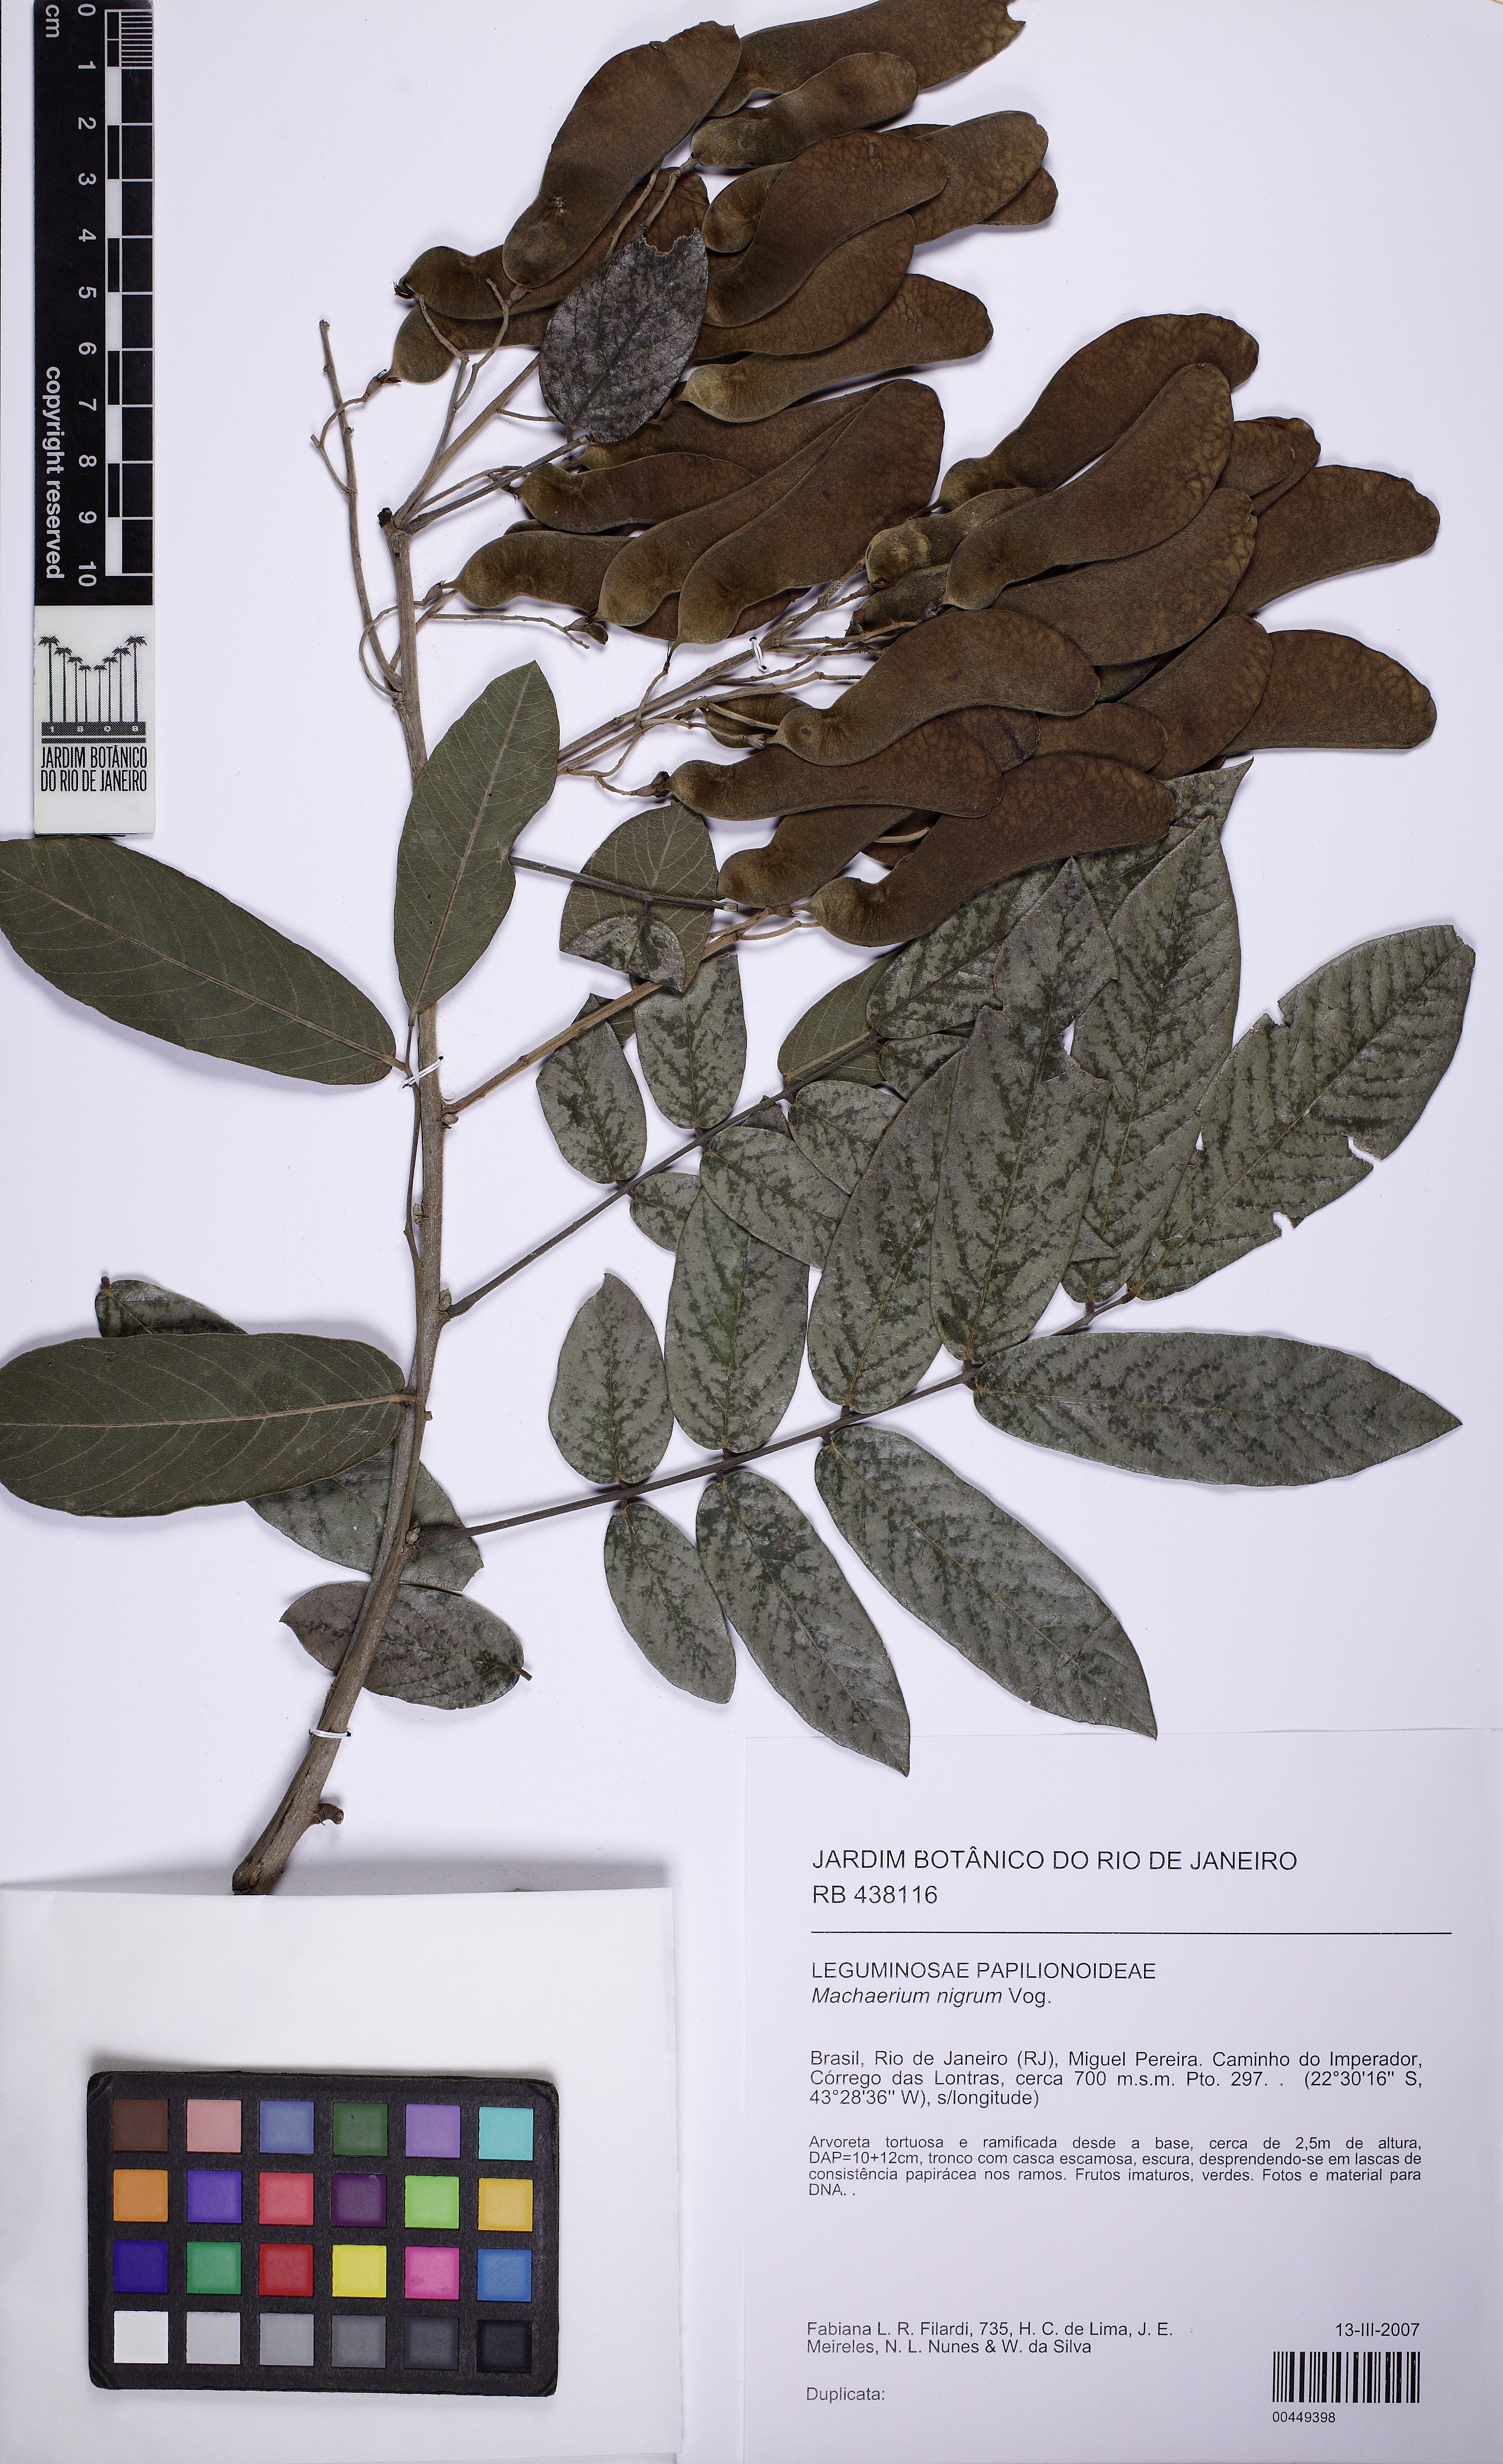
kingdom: Plantae
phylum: Tracheophyta
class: Magnoliopsida
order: Fabales
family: Fabaceae
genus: Machaerium
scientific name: Machaerium nigrum
